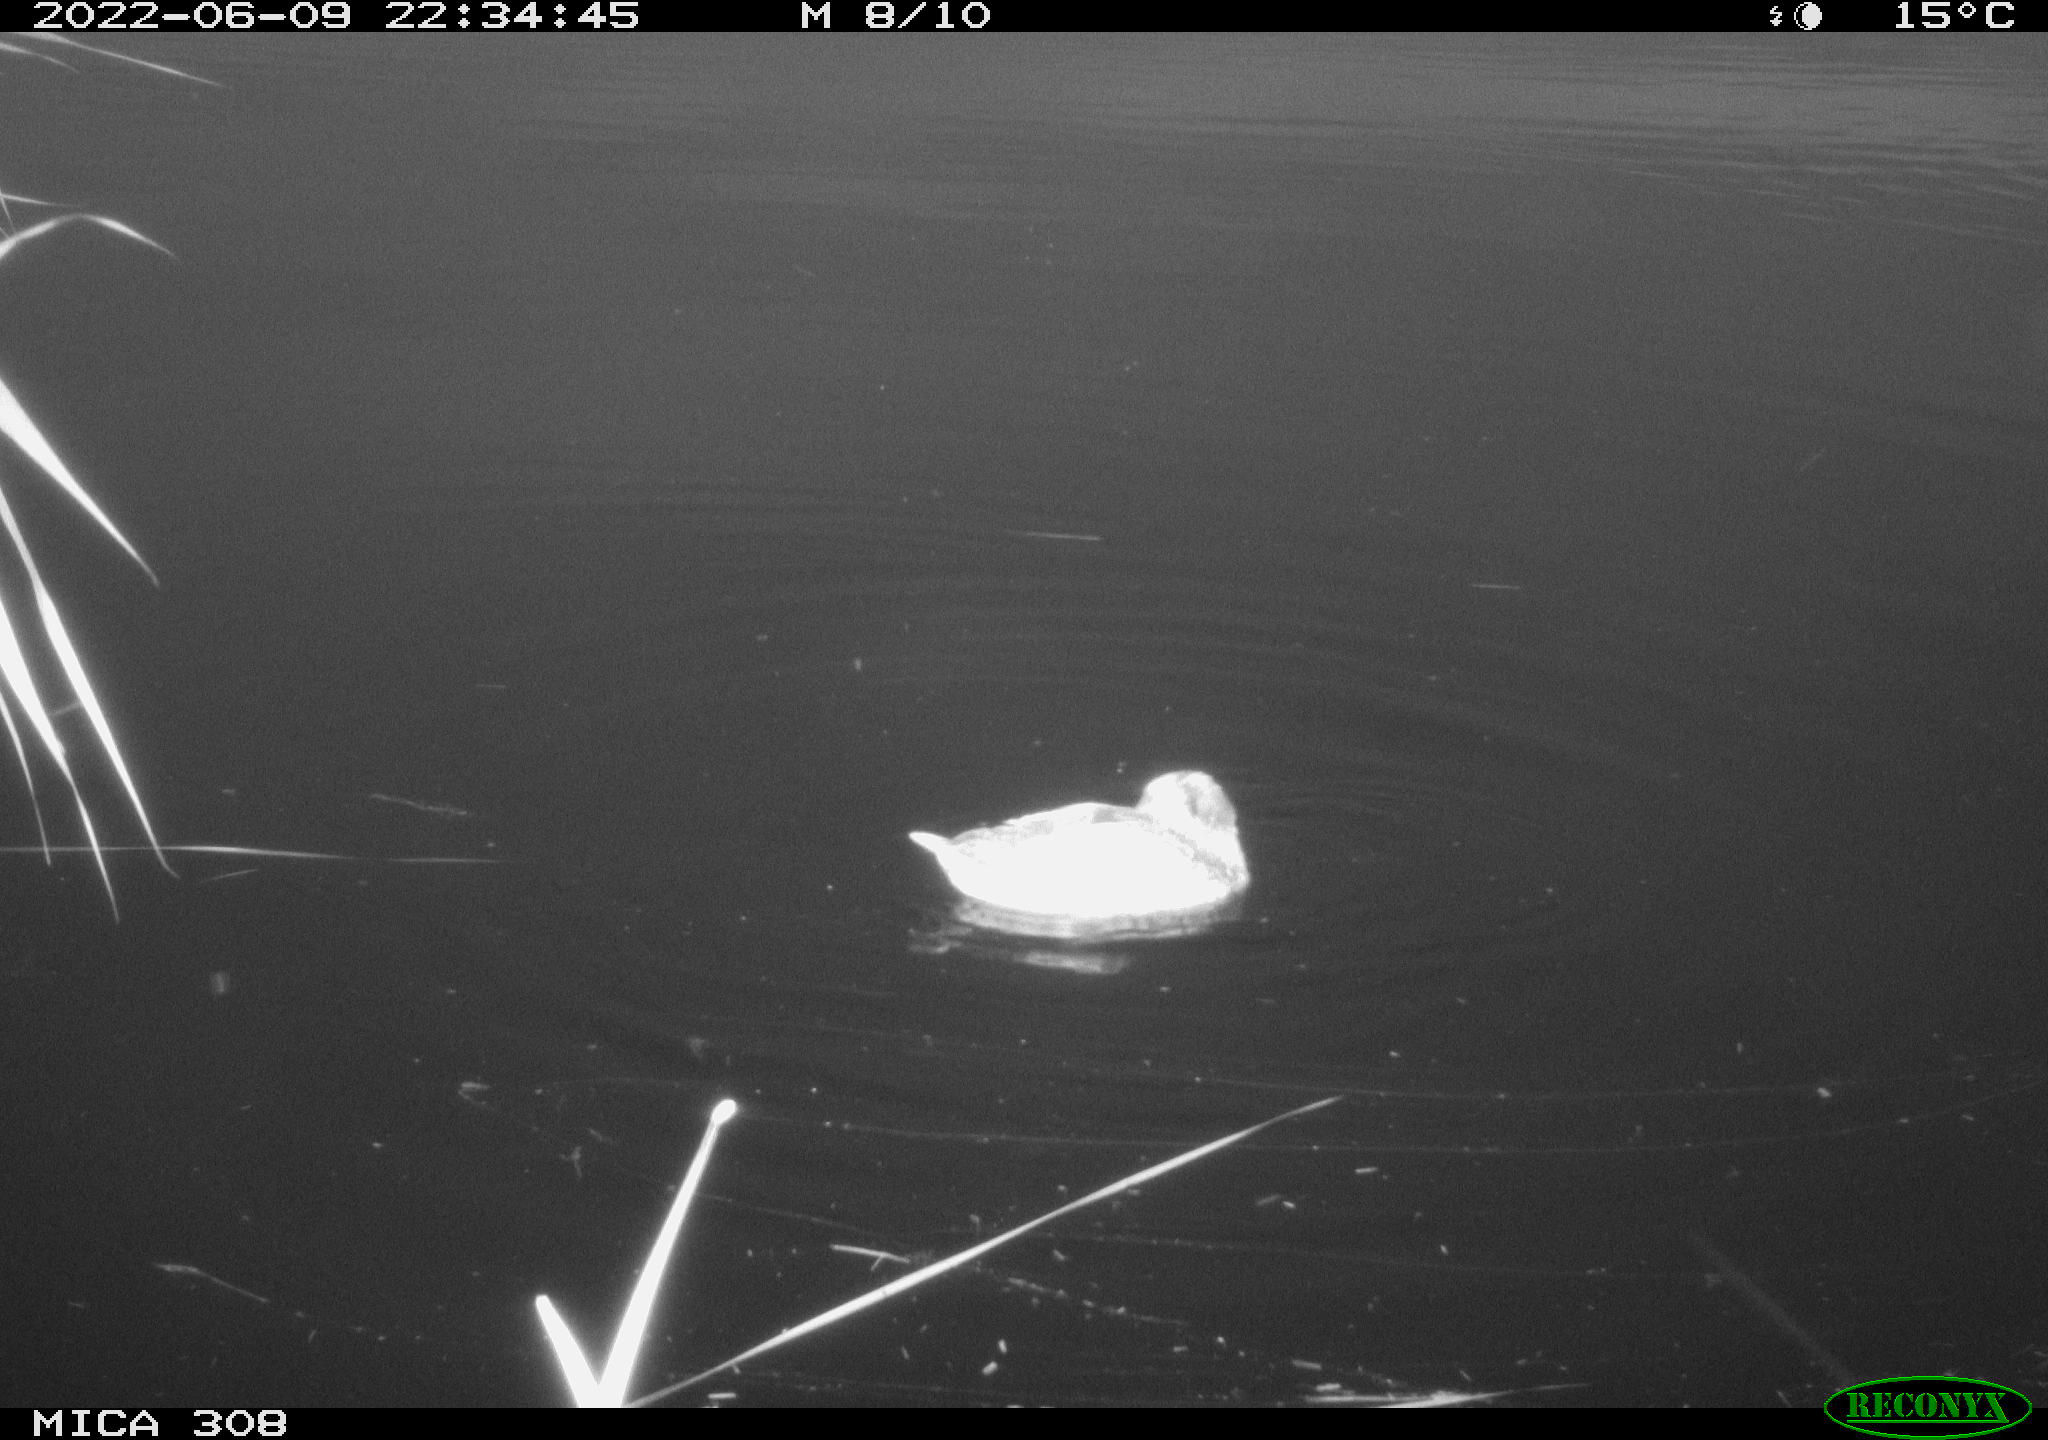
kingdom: Animalia
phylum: Chordata
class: Aves
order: Gruiformes
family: Rallidae
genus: Gallinula
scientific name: Gallinula chloropus
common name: Common moorhen
